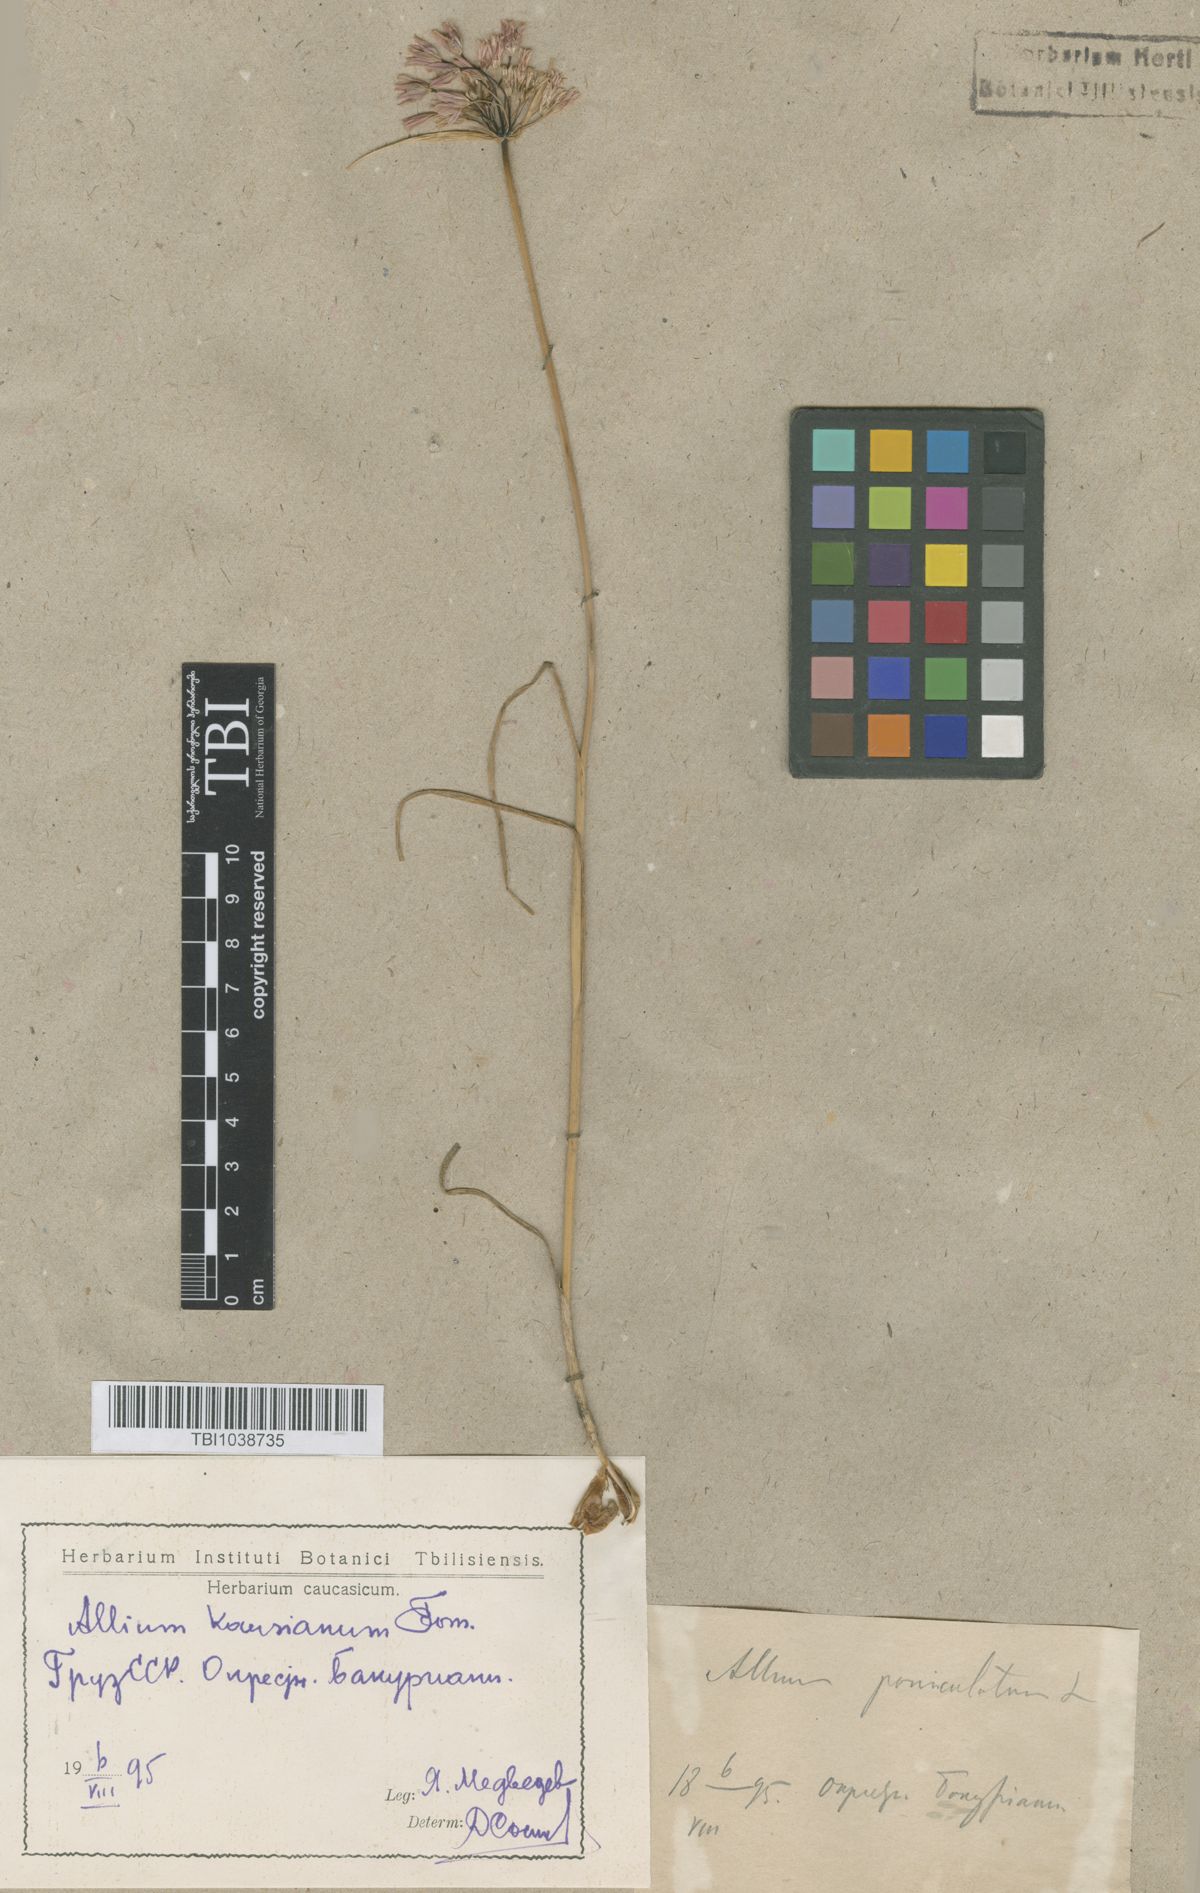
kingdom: Plantae
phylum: Tracheophyta
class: Liliopsida
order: Asparagales
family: Amaryllidaceae
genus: Allium
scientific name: Allium kunthianum
